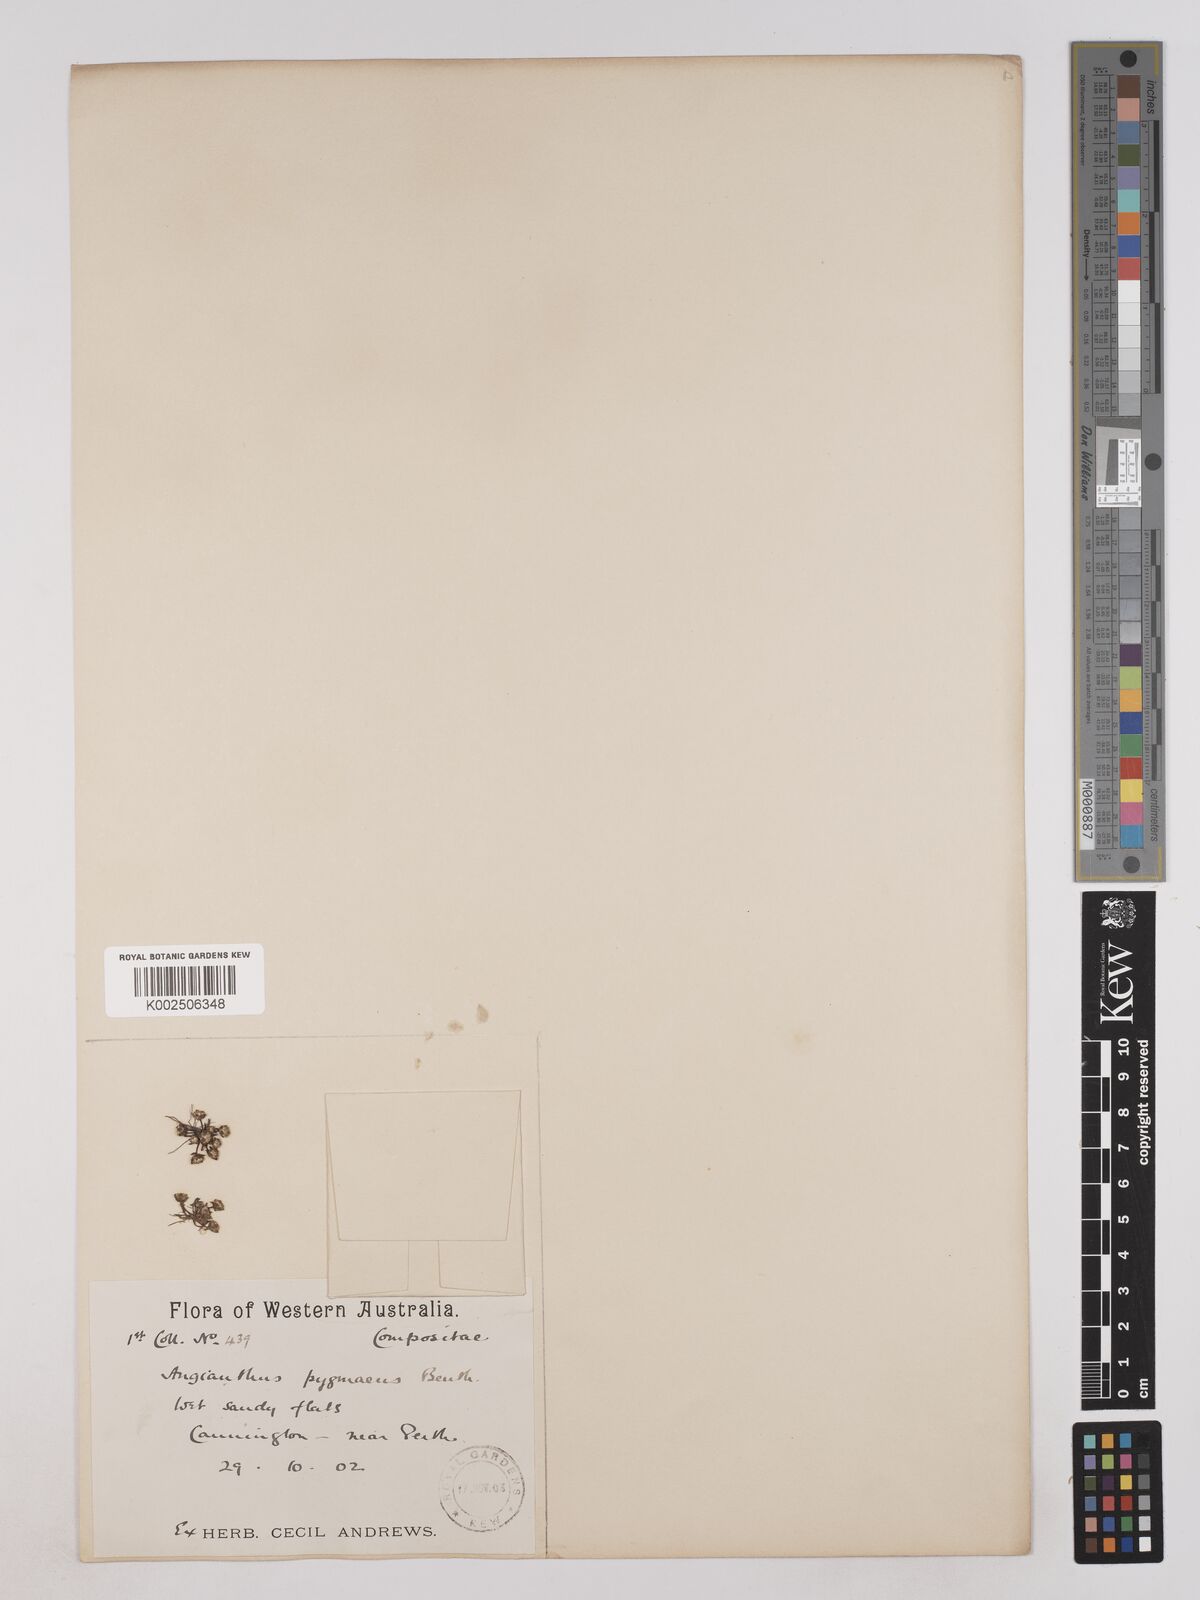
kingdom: Plantae
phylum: Tracheophyta
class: Magnoliopsida
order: Asterales
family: Asteraceae
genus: Angianthus
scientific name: Angianthus pygmaeus
